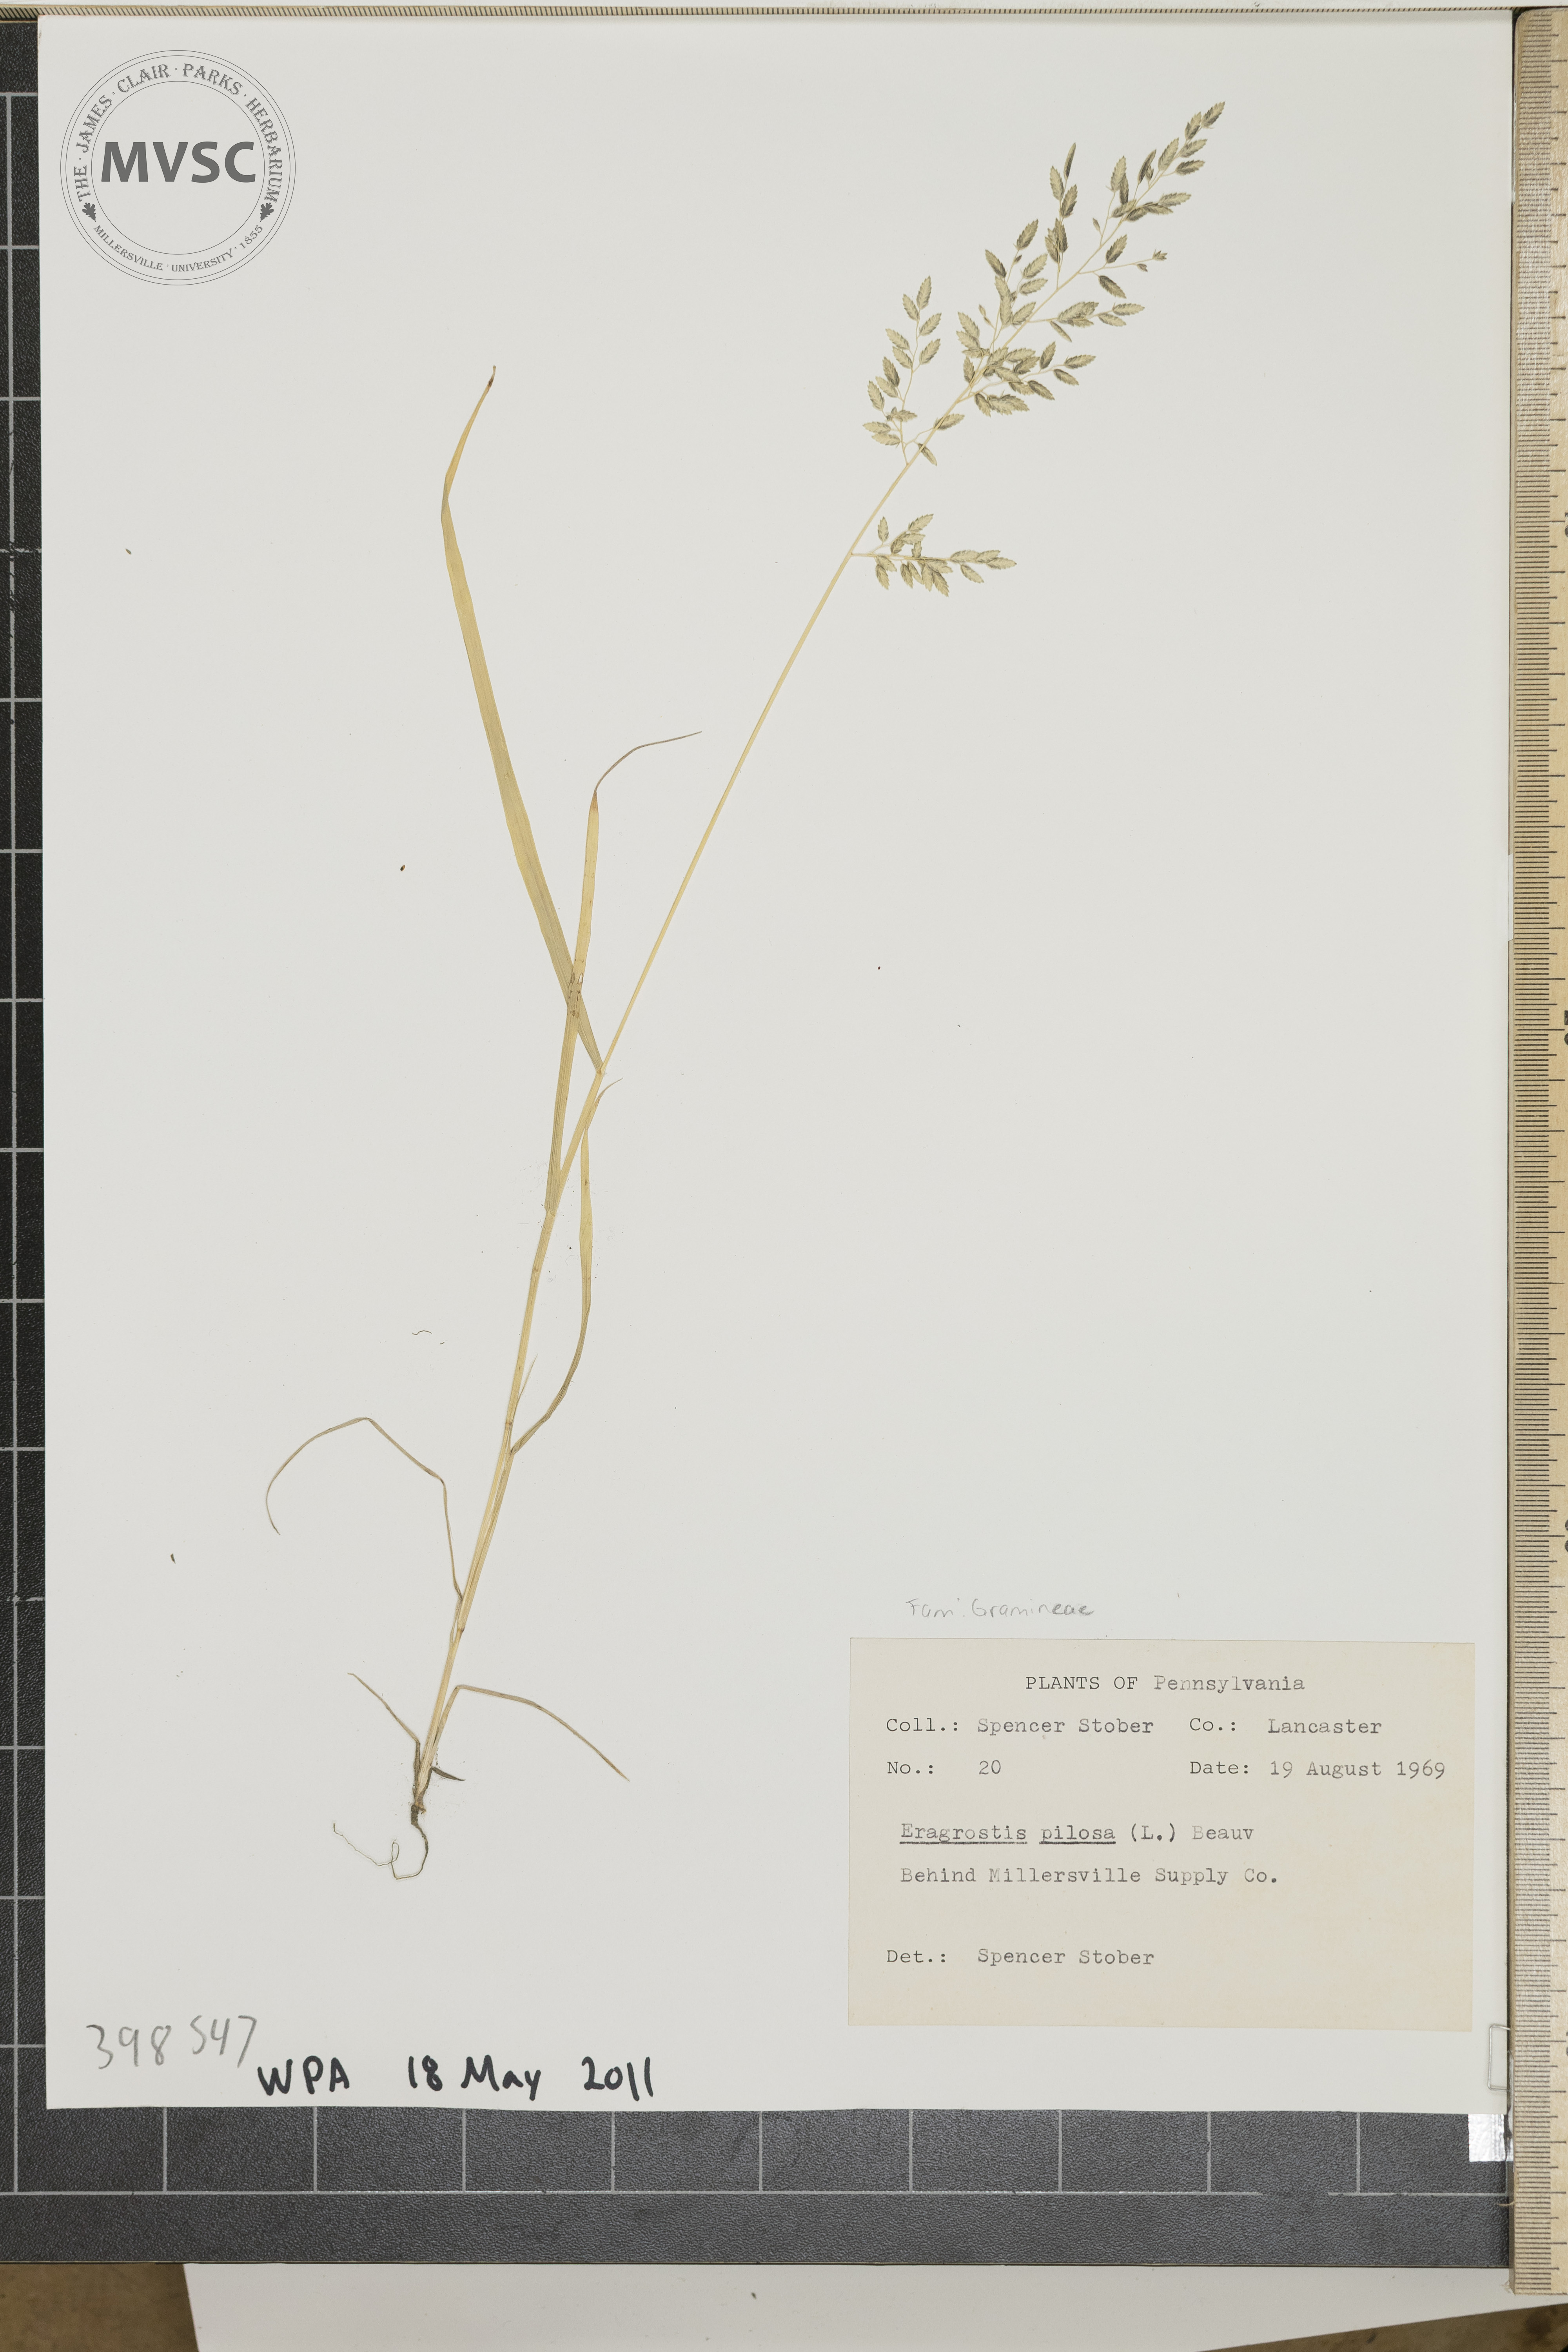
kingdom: Plantae
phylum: Tracheophyta
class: Liliopsida
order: Poales
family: Poaceae
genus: Eragrostis
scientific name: Eragrostis pilosa
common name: India lovegrass
